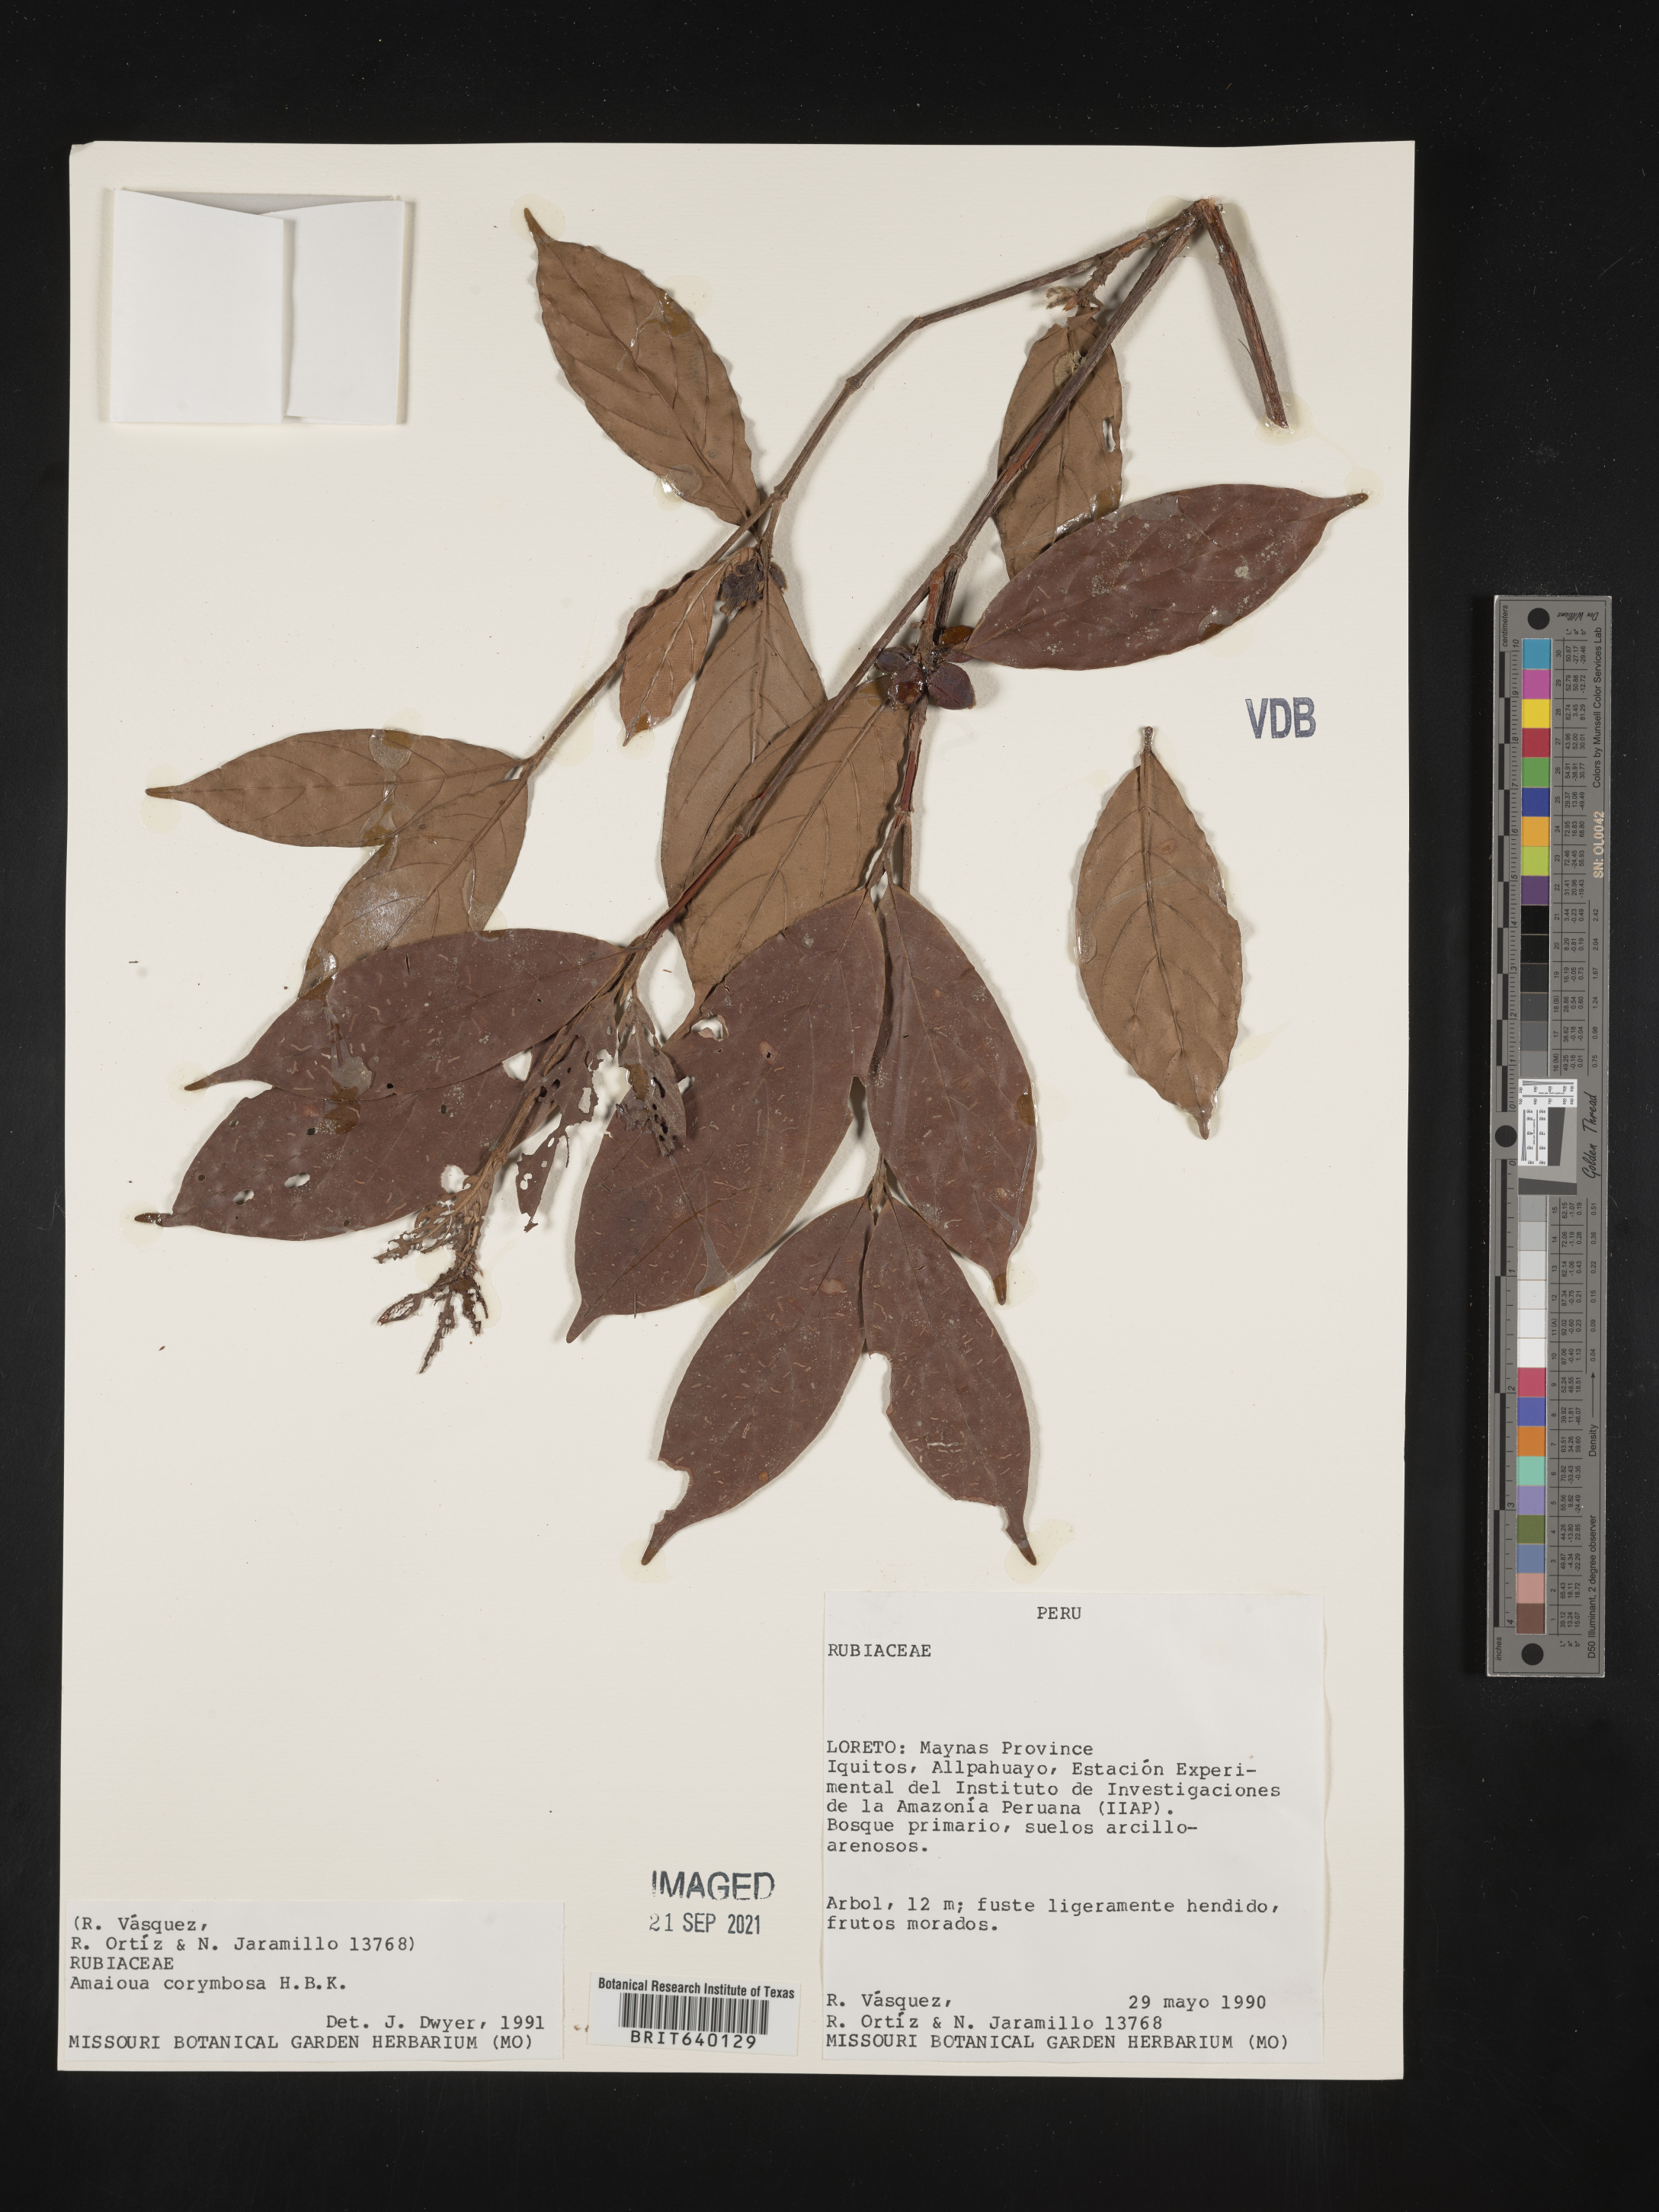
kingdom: Plantae
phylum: Tracheophyta
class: Magnoliopsida
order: Gentianales
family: Rubiaceae
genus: Amaioua
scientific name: Amaioua
